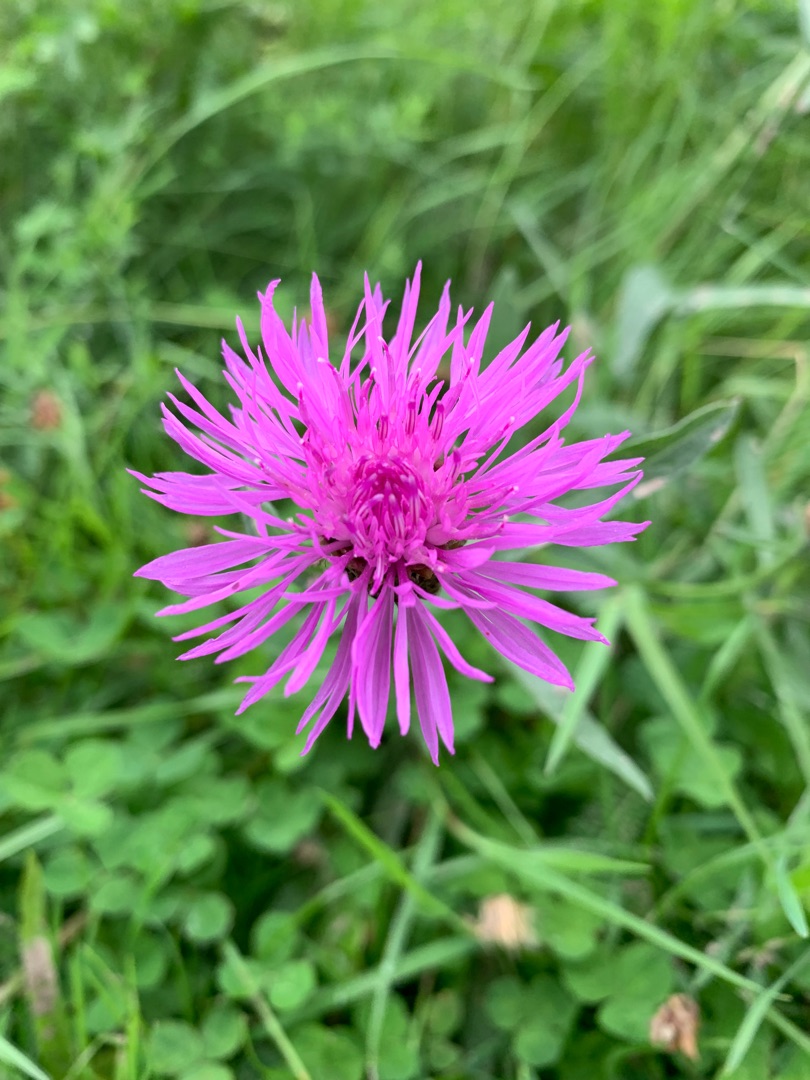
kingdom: Plantae
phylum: Tracheophyta
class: Magnoliopsida
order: Asterales
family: Asteraceae
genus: Centaurea
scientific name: Centaurea jacea
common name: Almindelig knopurt
